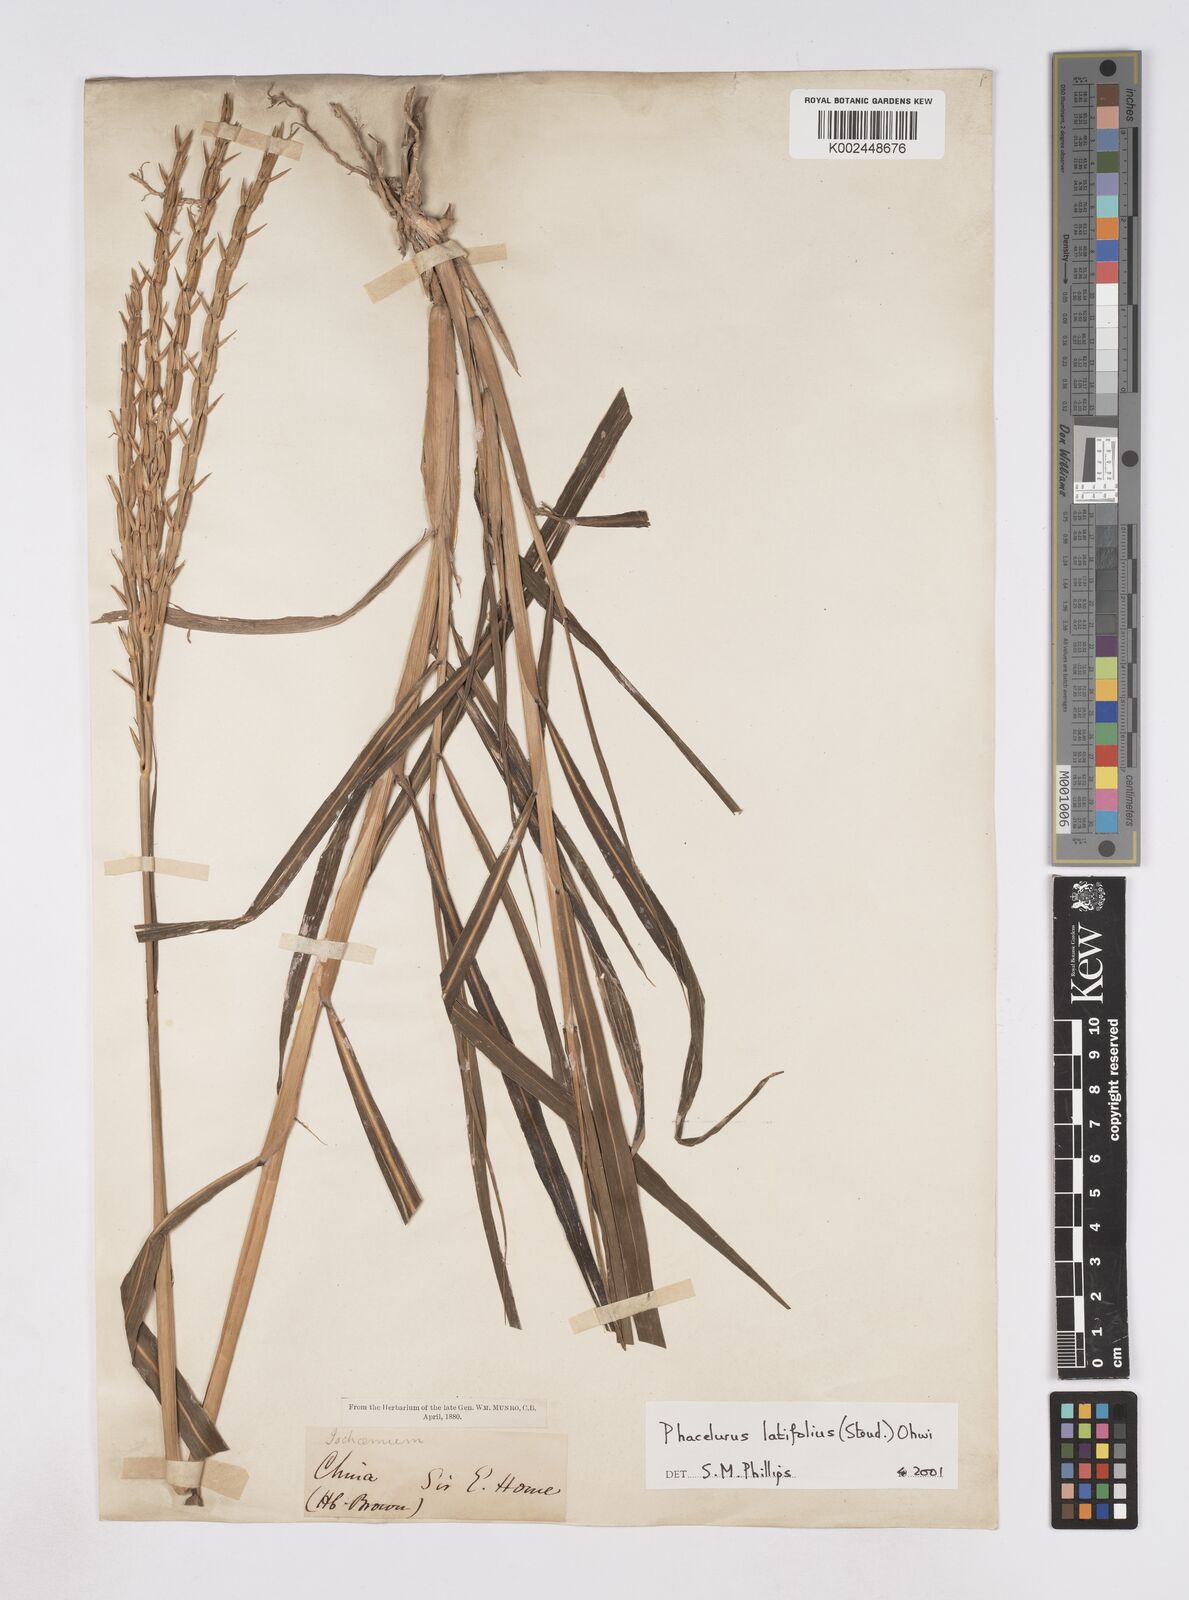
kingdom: Plantae
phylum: Tracheophyta
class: Liliopsida
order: Poales
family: Poaceae
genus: Phacelurus
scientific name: Phacelurus latifolius
